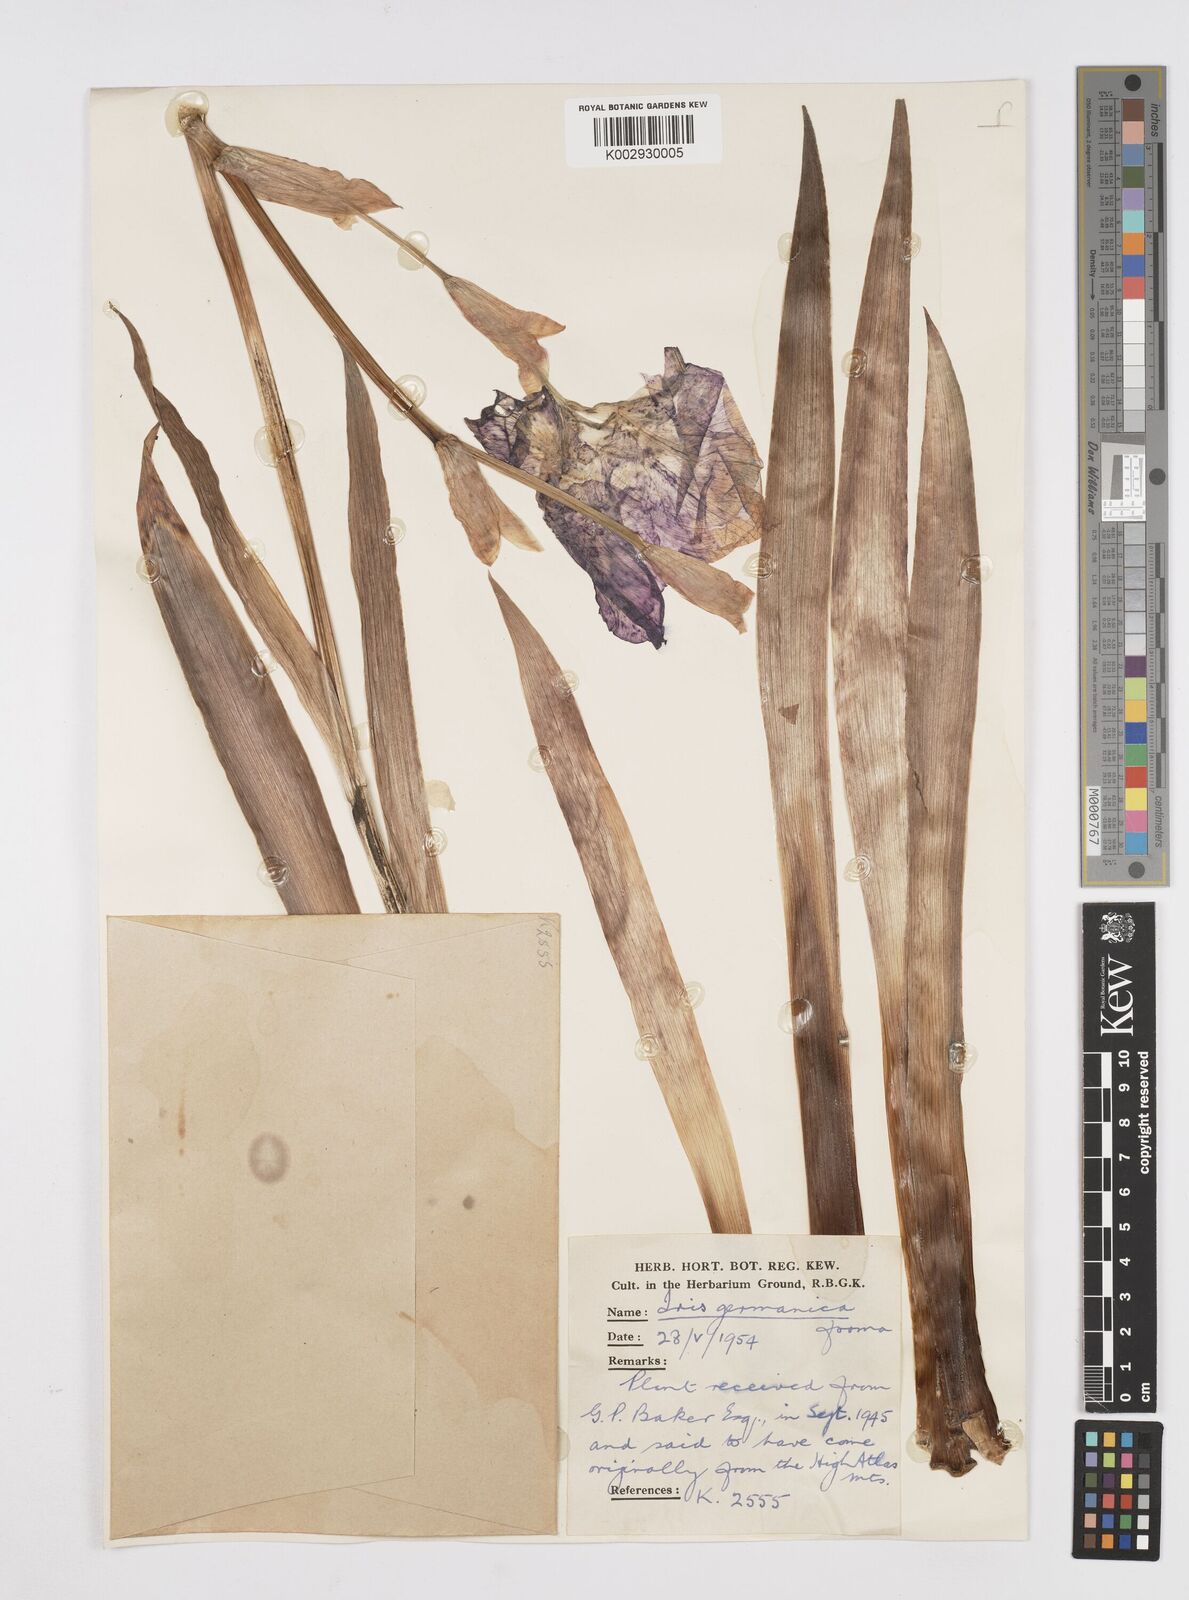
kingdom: Plantae
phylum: Tracheophyta
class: Liliopsida
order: Asparagales
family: Iridaceae
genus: Iris
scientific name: Iris germanica
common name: German iris
